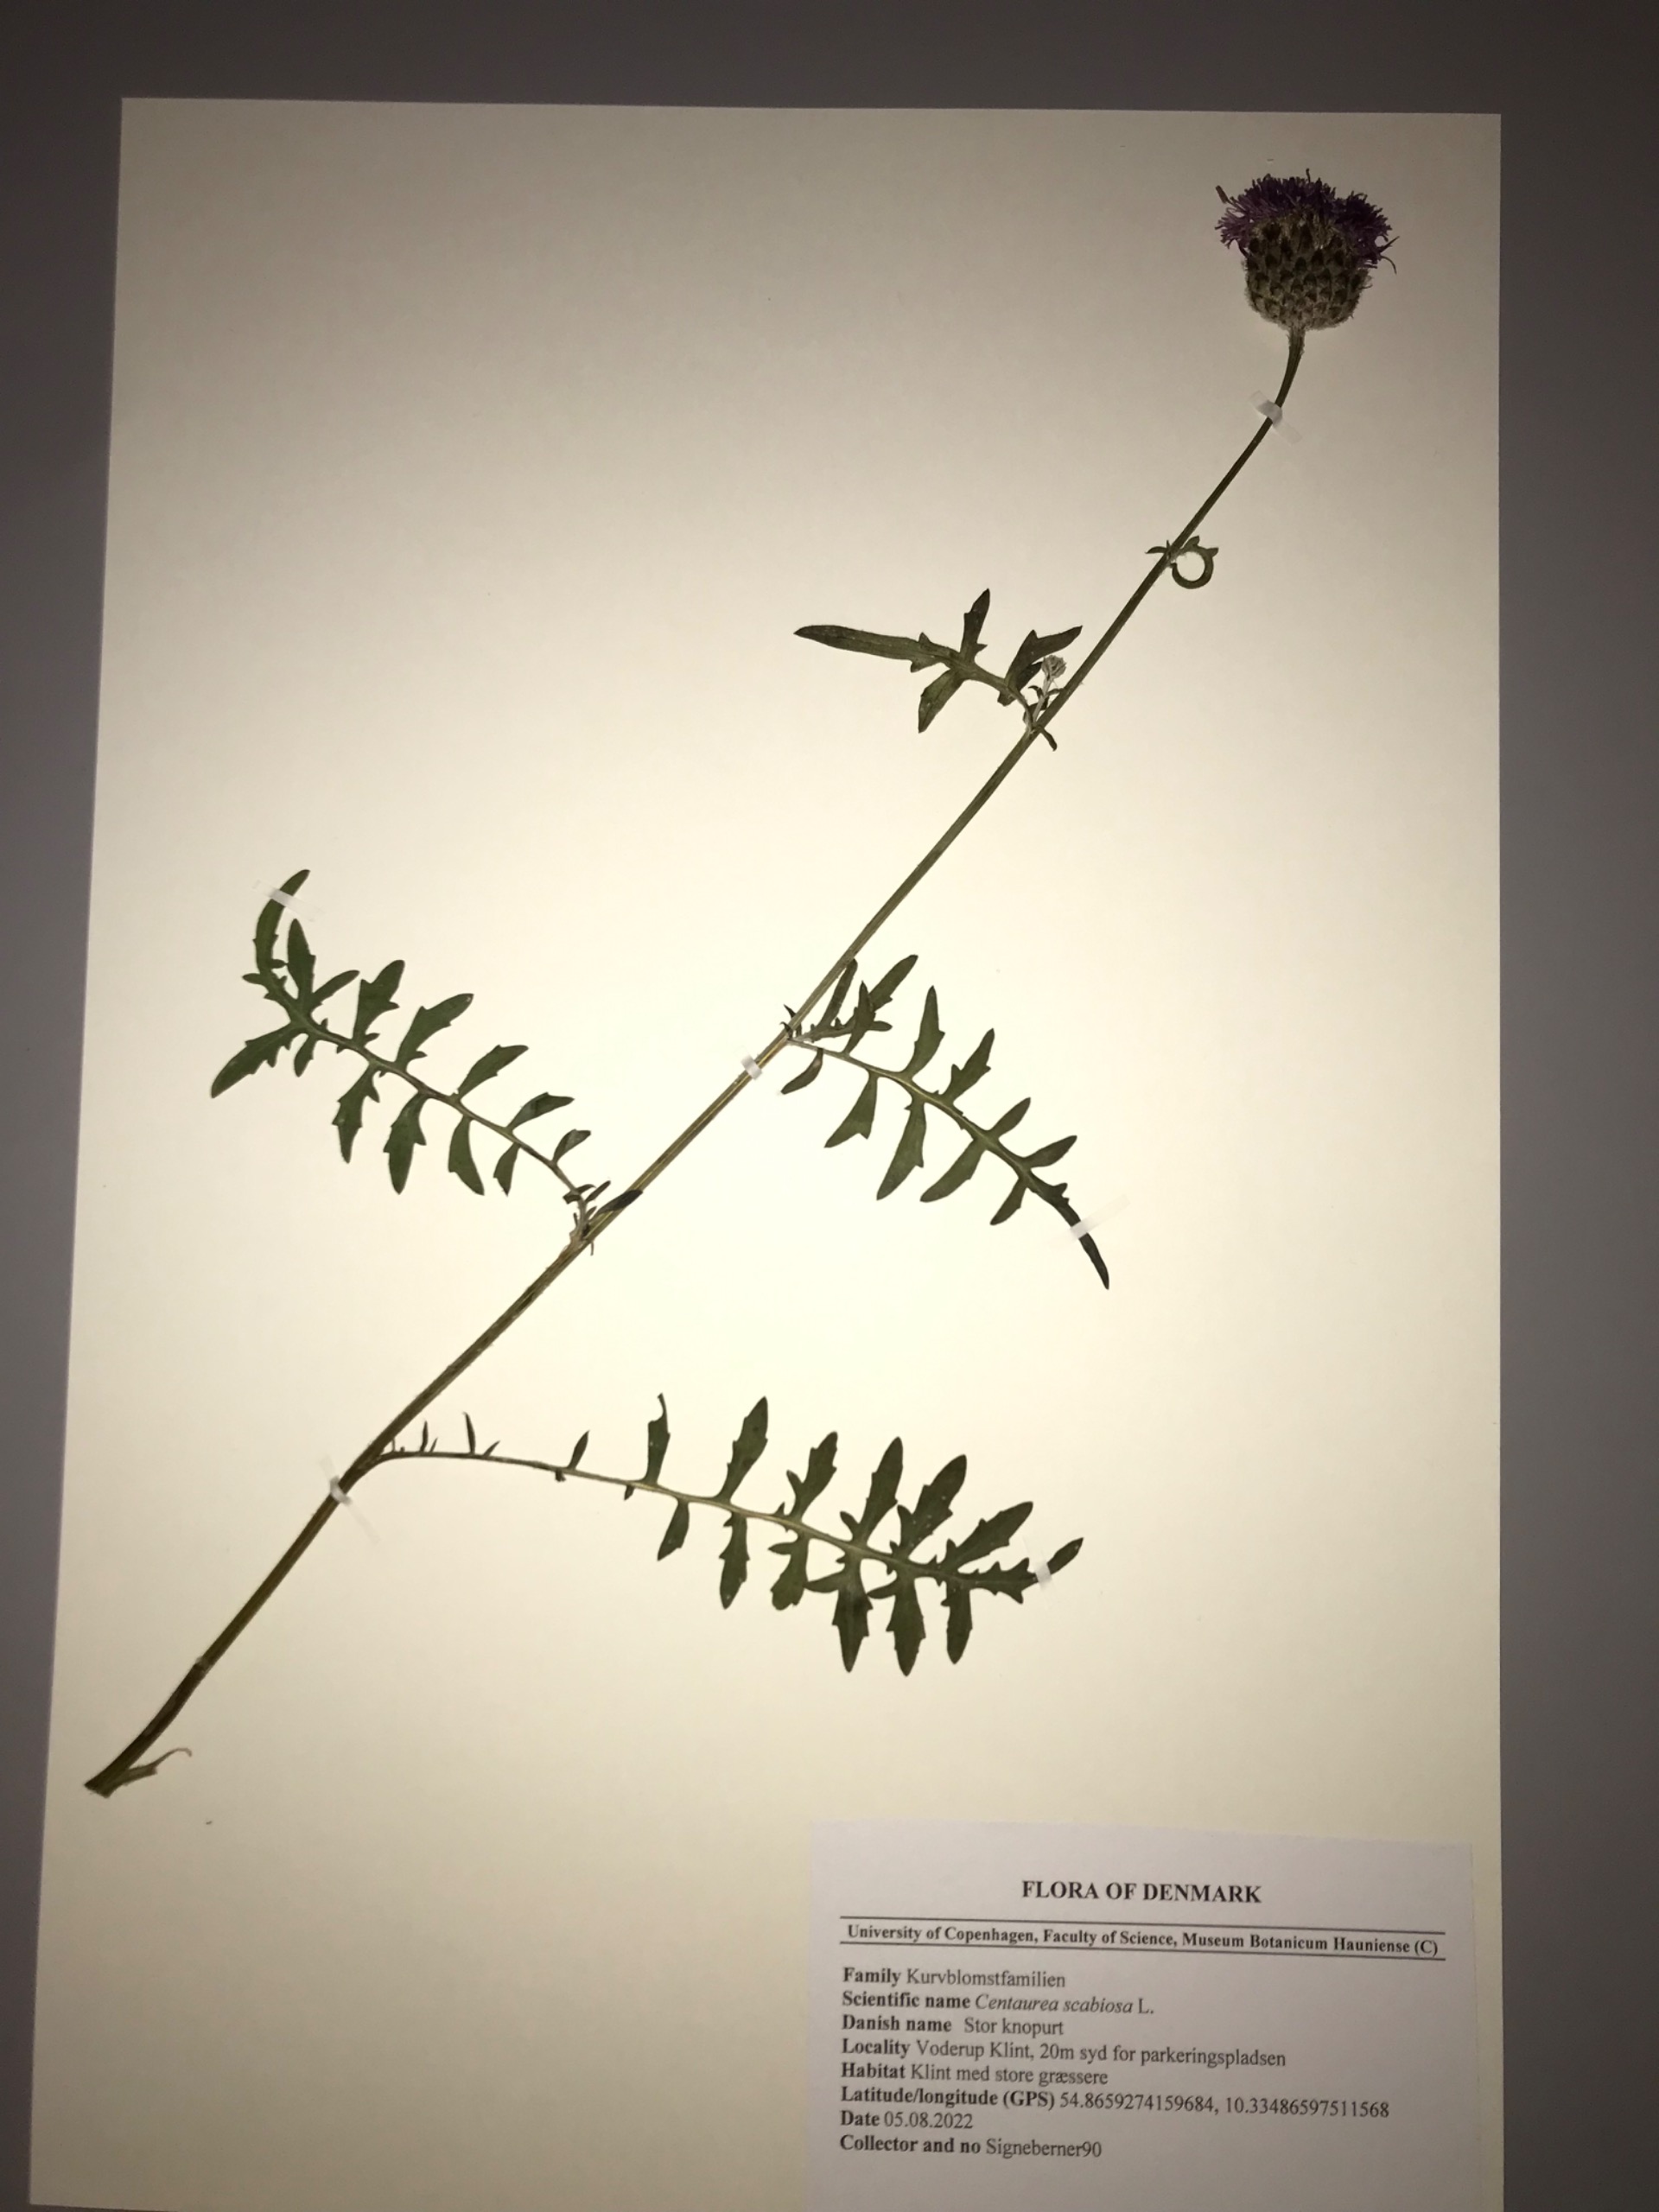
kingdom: Plantae
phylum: Tracheophyta
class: Magnoliopsida
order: Asterales
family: Asteraceae
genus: Centaurea
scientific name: Centaurea scabiosa
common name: Stor knopurt
